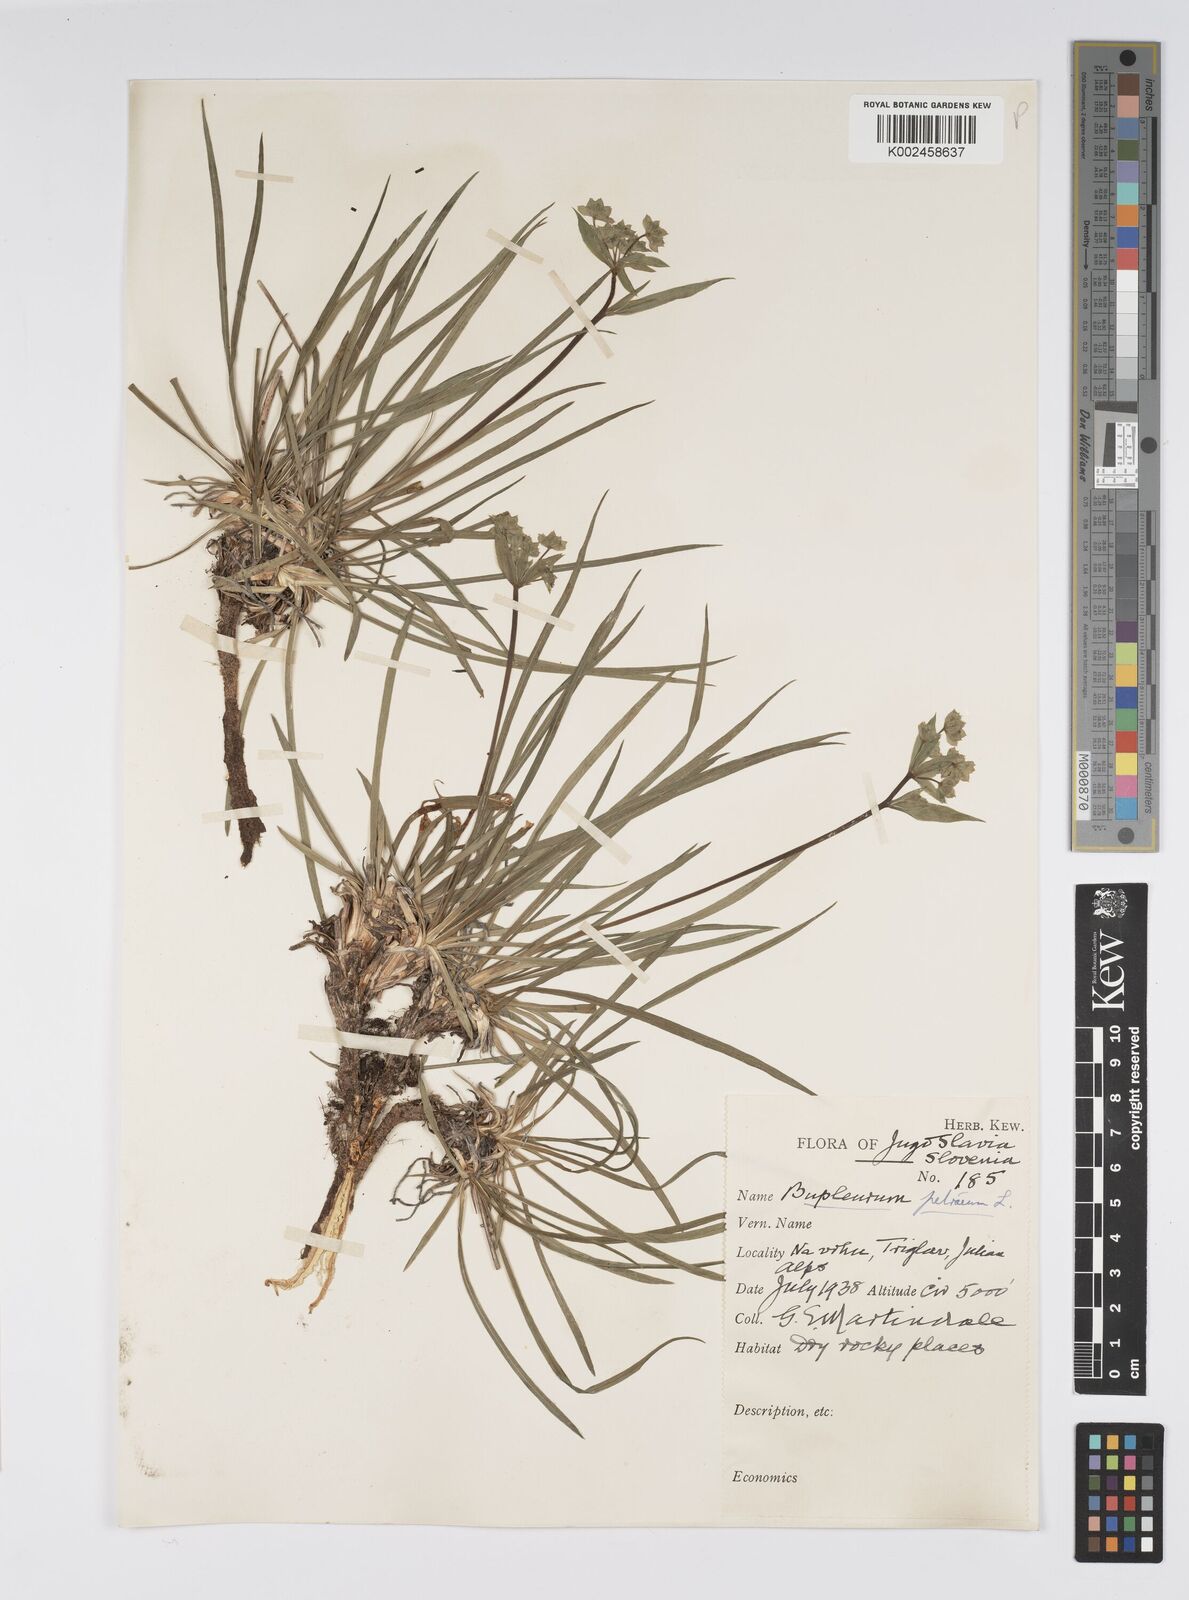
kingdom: Plantae
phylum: Tracheophyta
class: Magnoliopsida
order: Apiales
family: Apiaceae
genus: Bupleurum
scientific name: Bupleurum petraeum
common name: Rock hare's-ear
